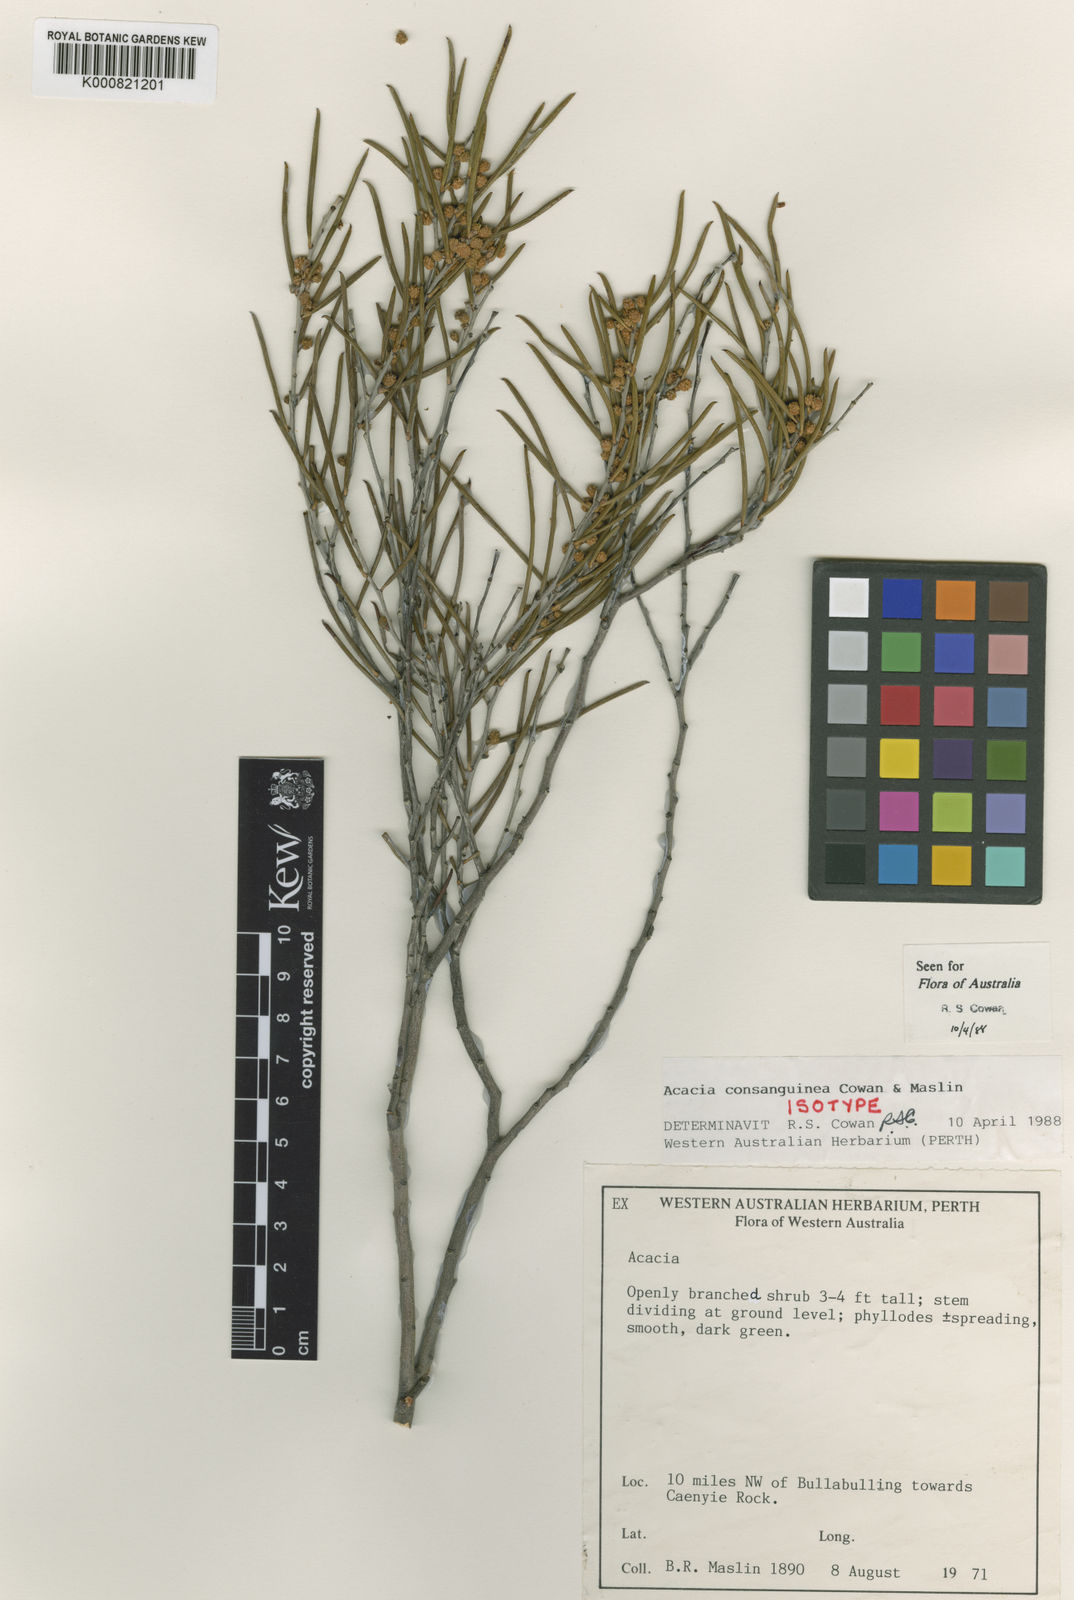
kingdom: Plantae
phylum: Tracheophyta
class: Magnoliopsida
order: Fabales
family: Fabaceae
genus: Acacia
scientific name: Acacia consanguinea
